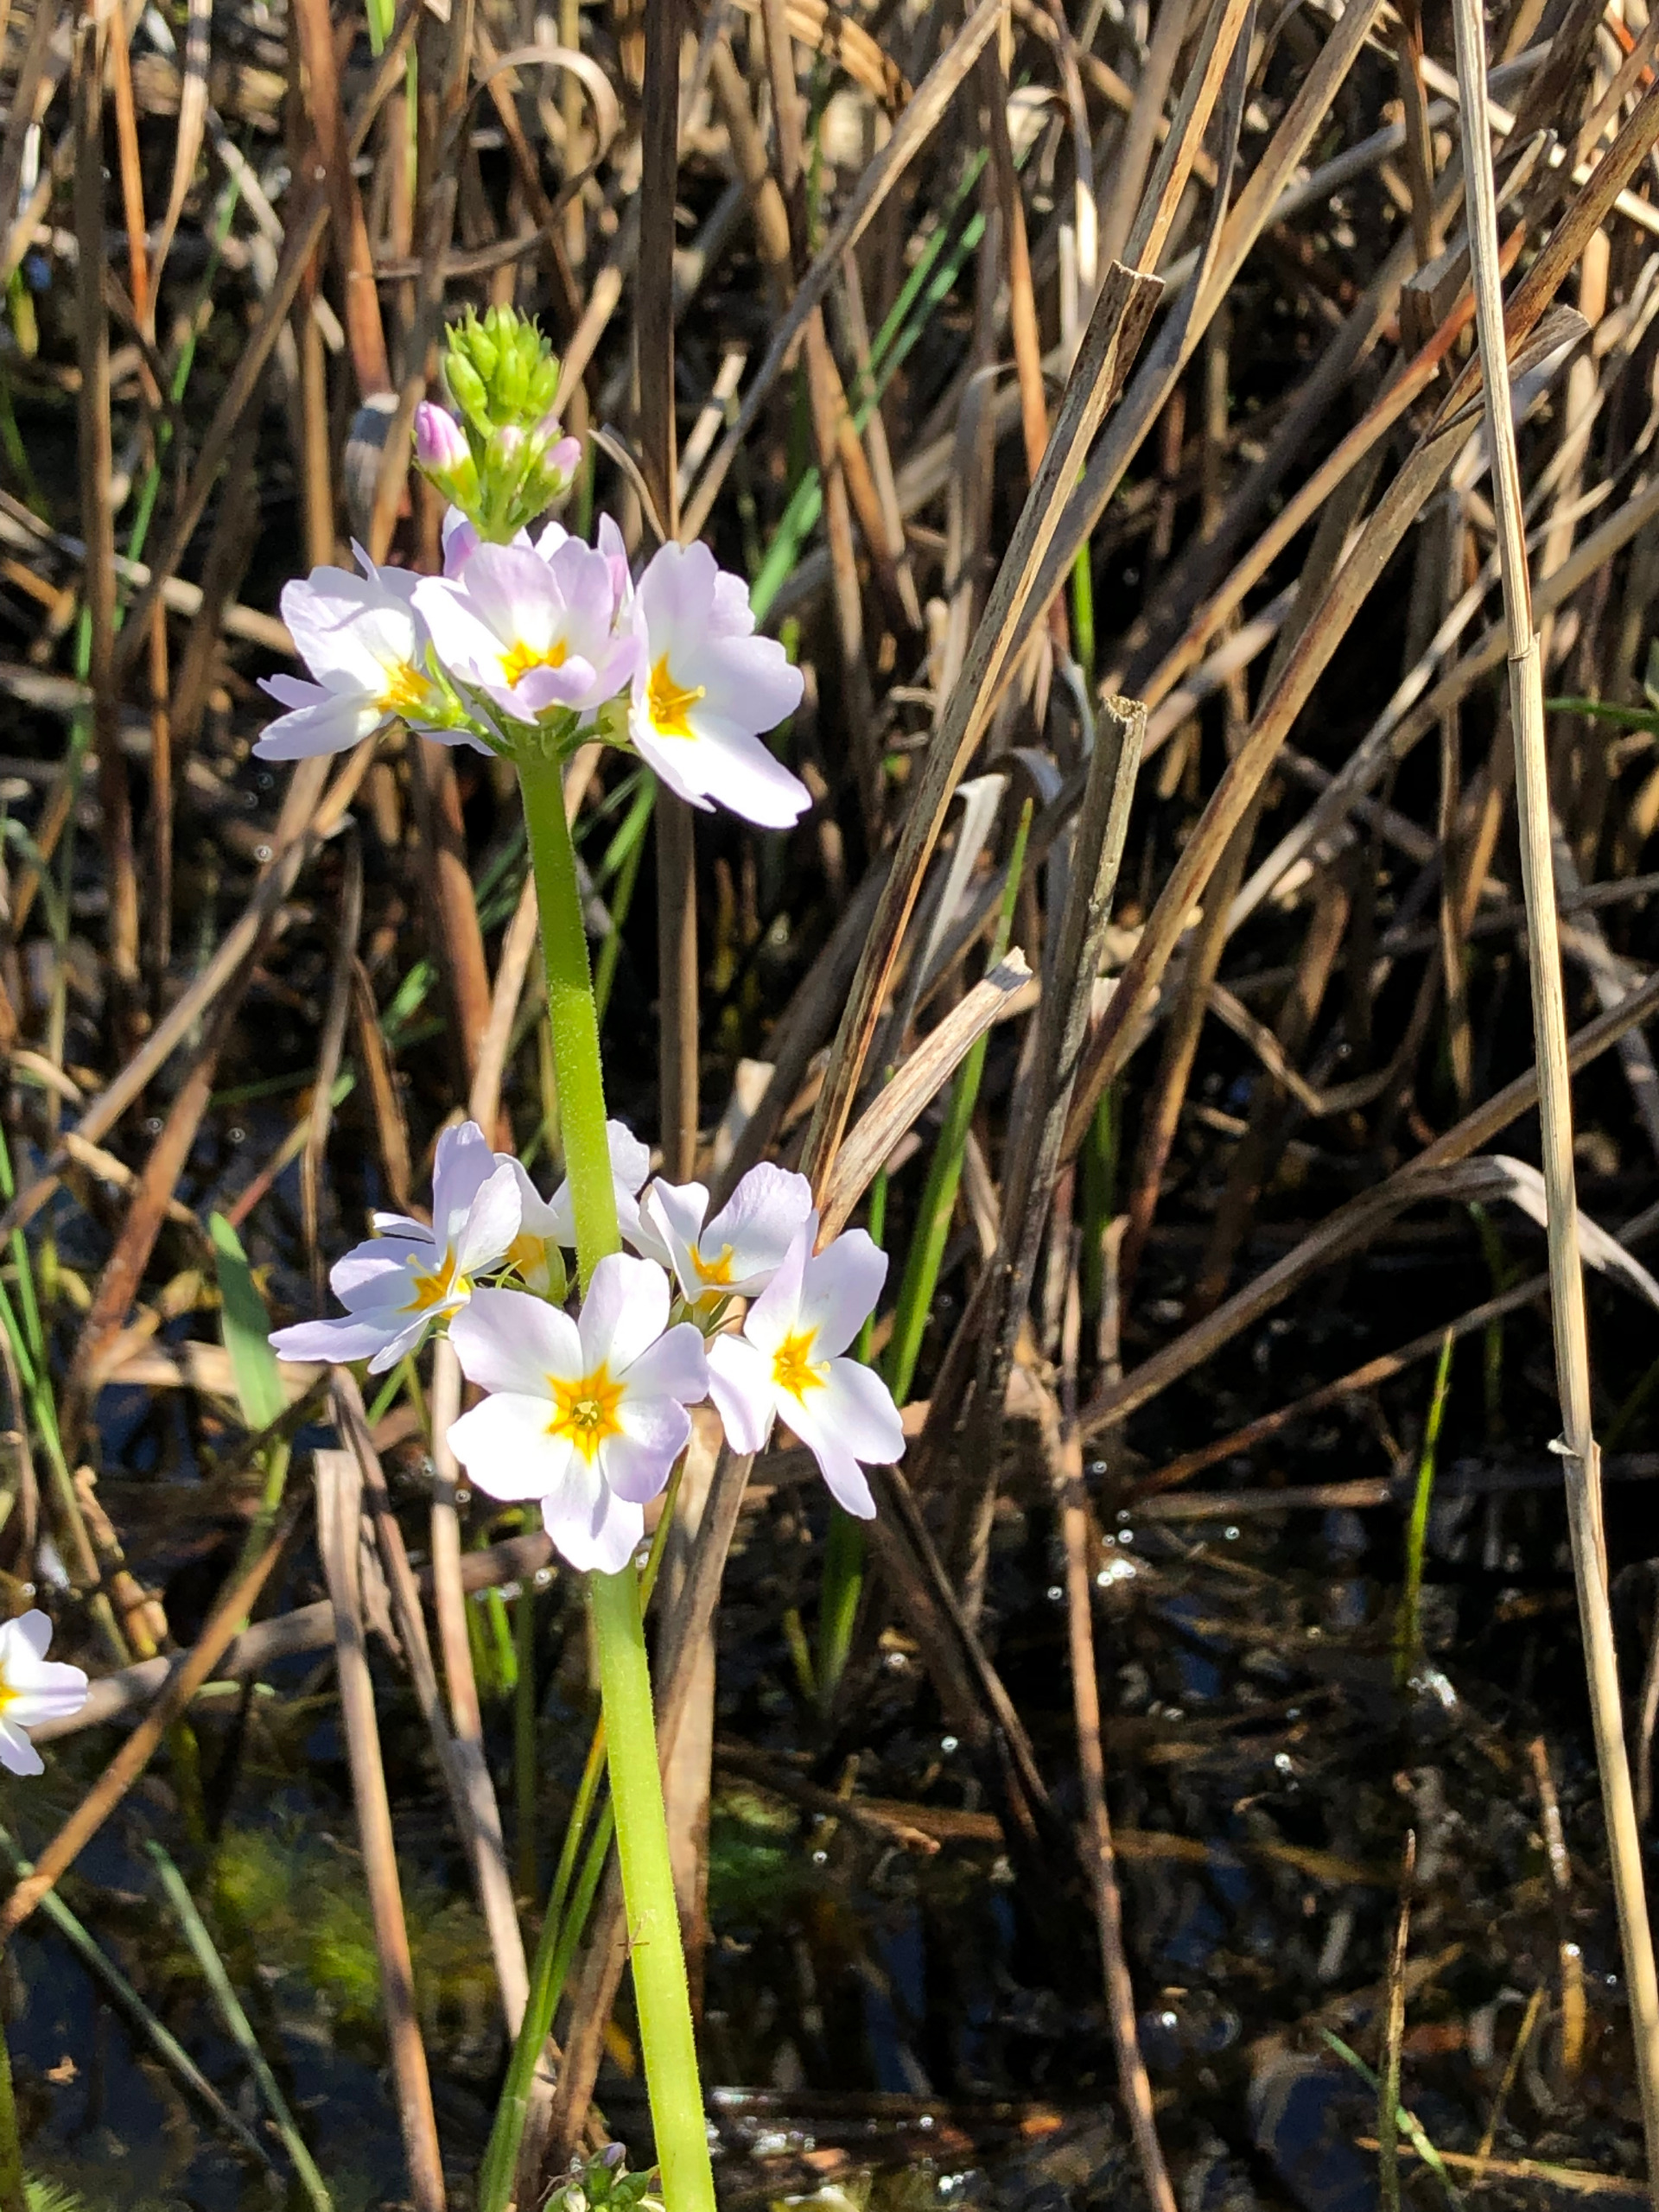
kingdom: Plantae
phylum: Tracheophyta
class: Magnoliopsida
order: Ericales
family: Primulaceae
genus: Hottonia
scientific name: Hottonia palustris
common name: Vandrøllike
